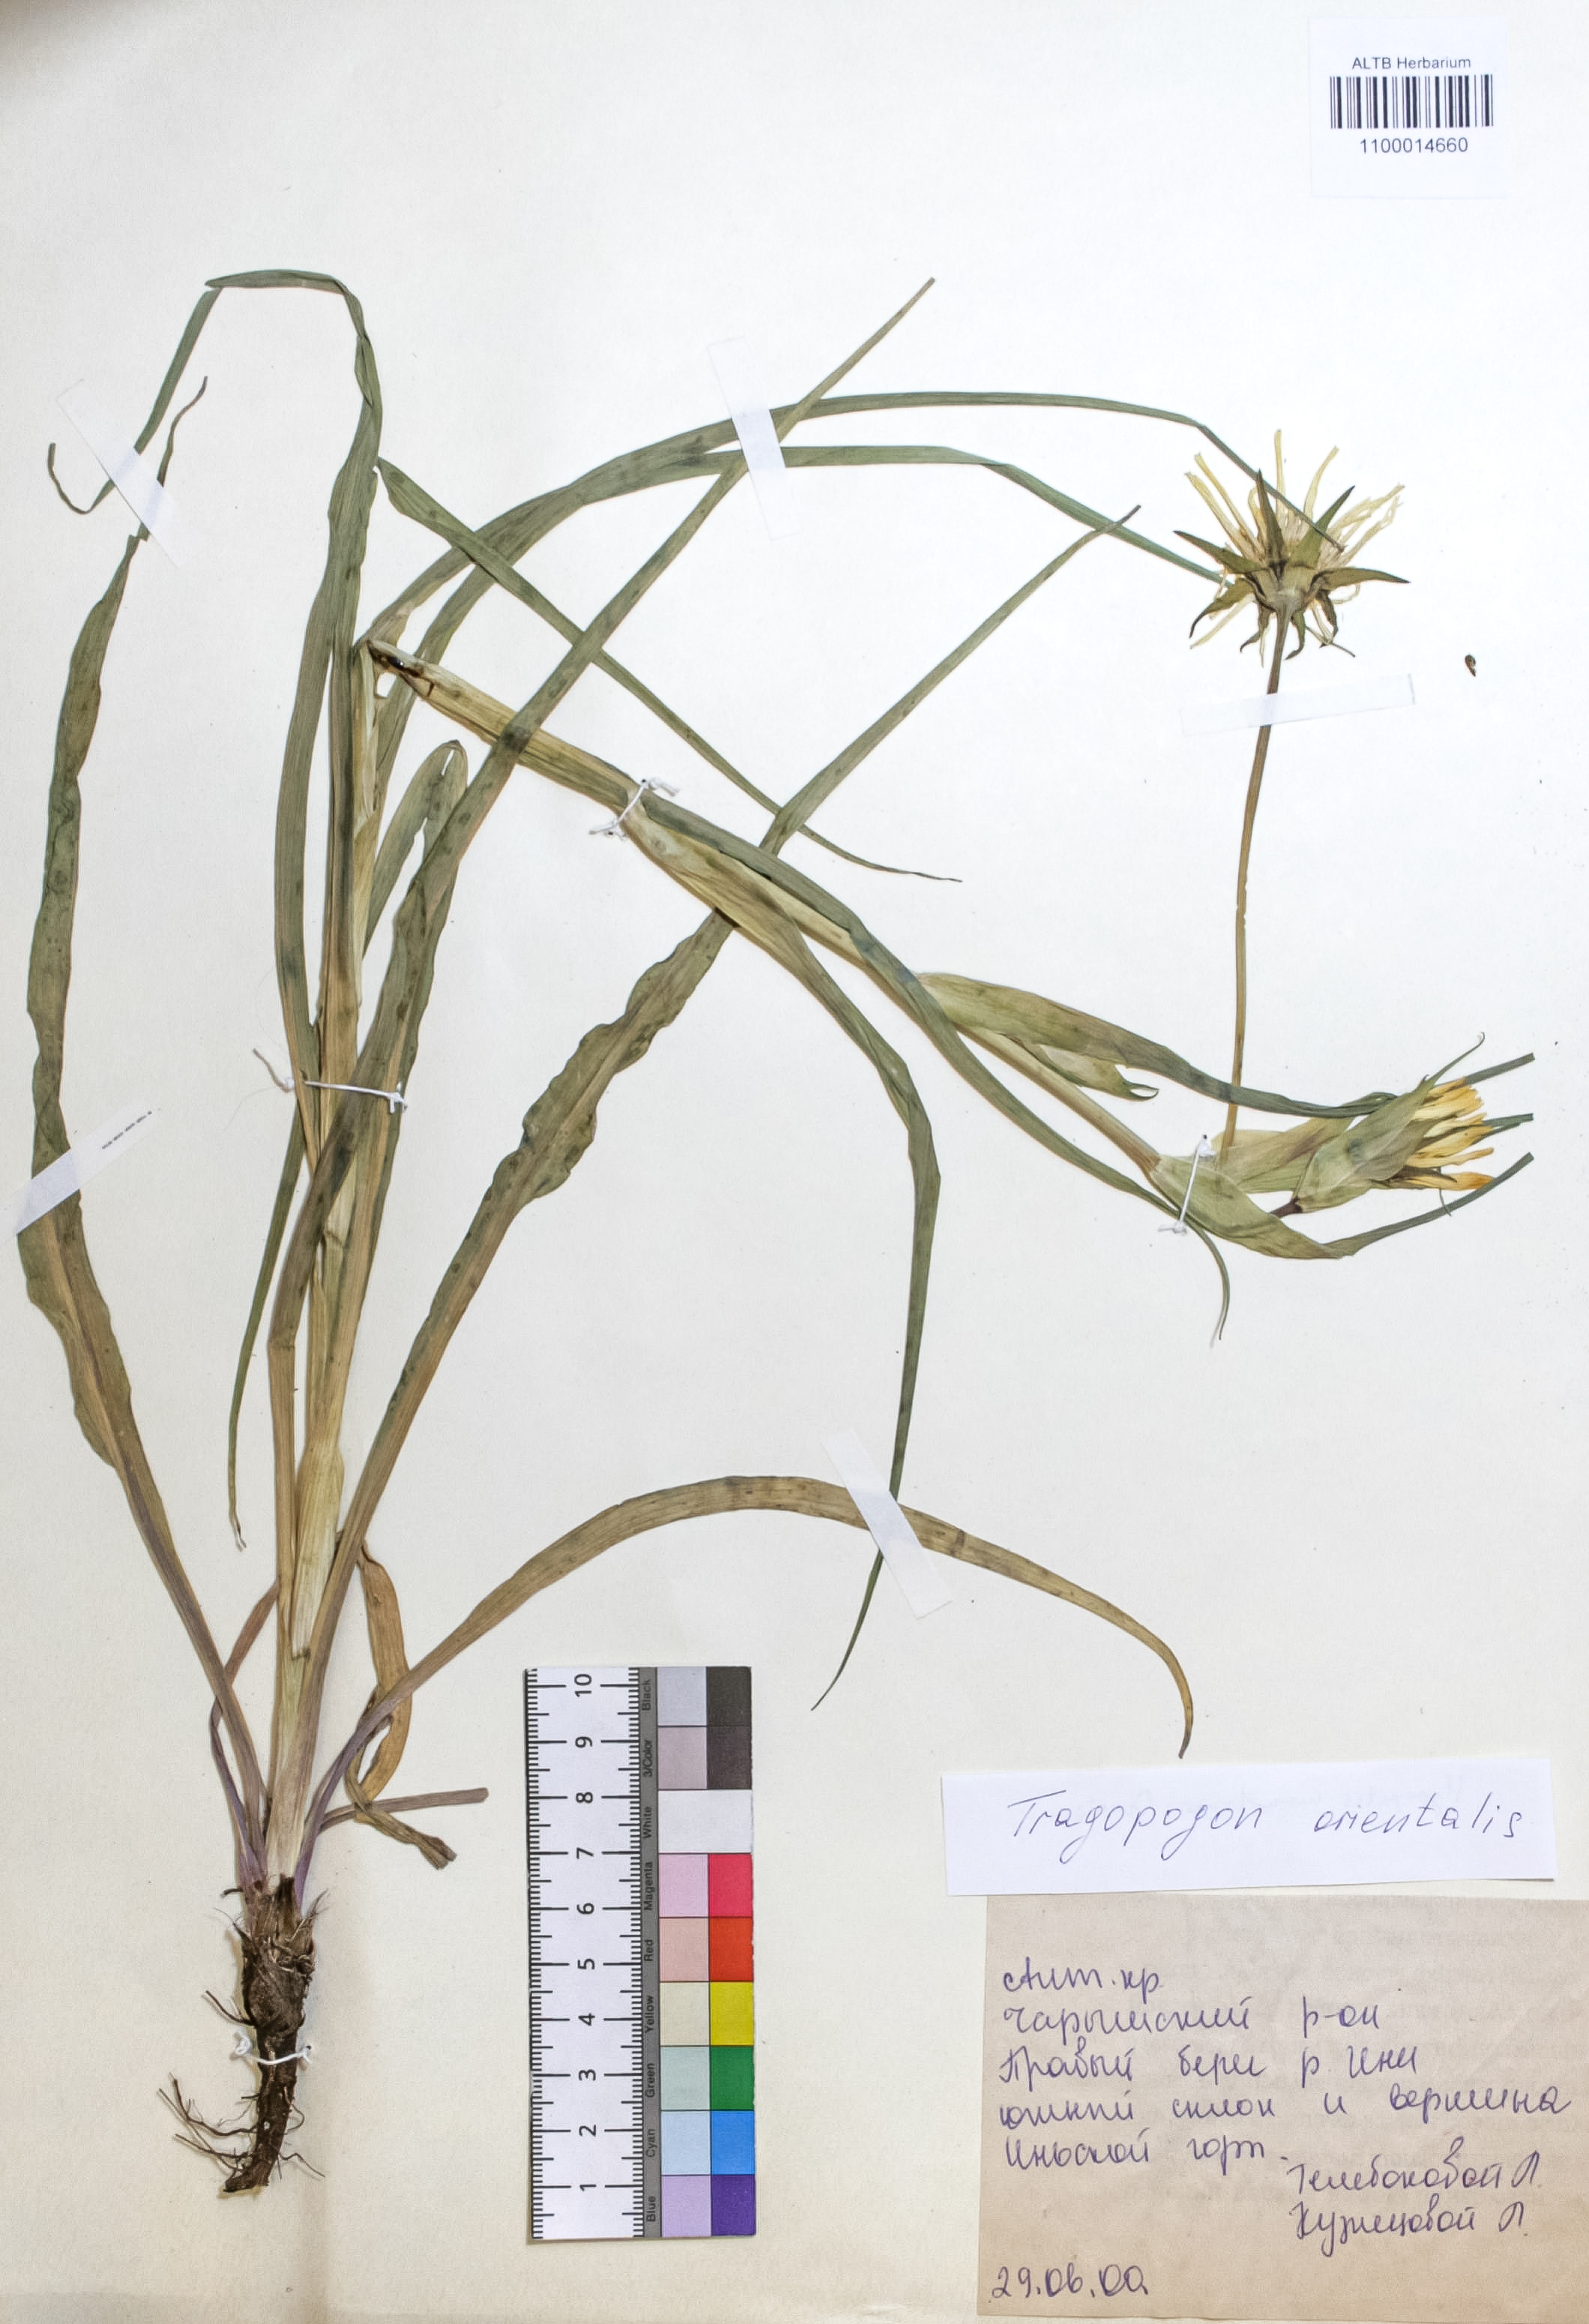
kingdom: Plantae
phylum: Tracheophyta
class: Magnoliopsida
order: Asterales
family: Asteraceae
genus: Tragopogon
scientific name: Tragopogon orientalis
